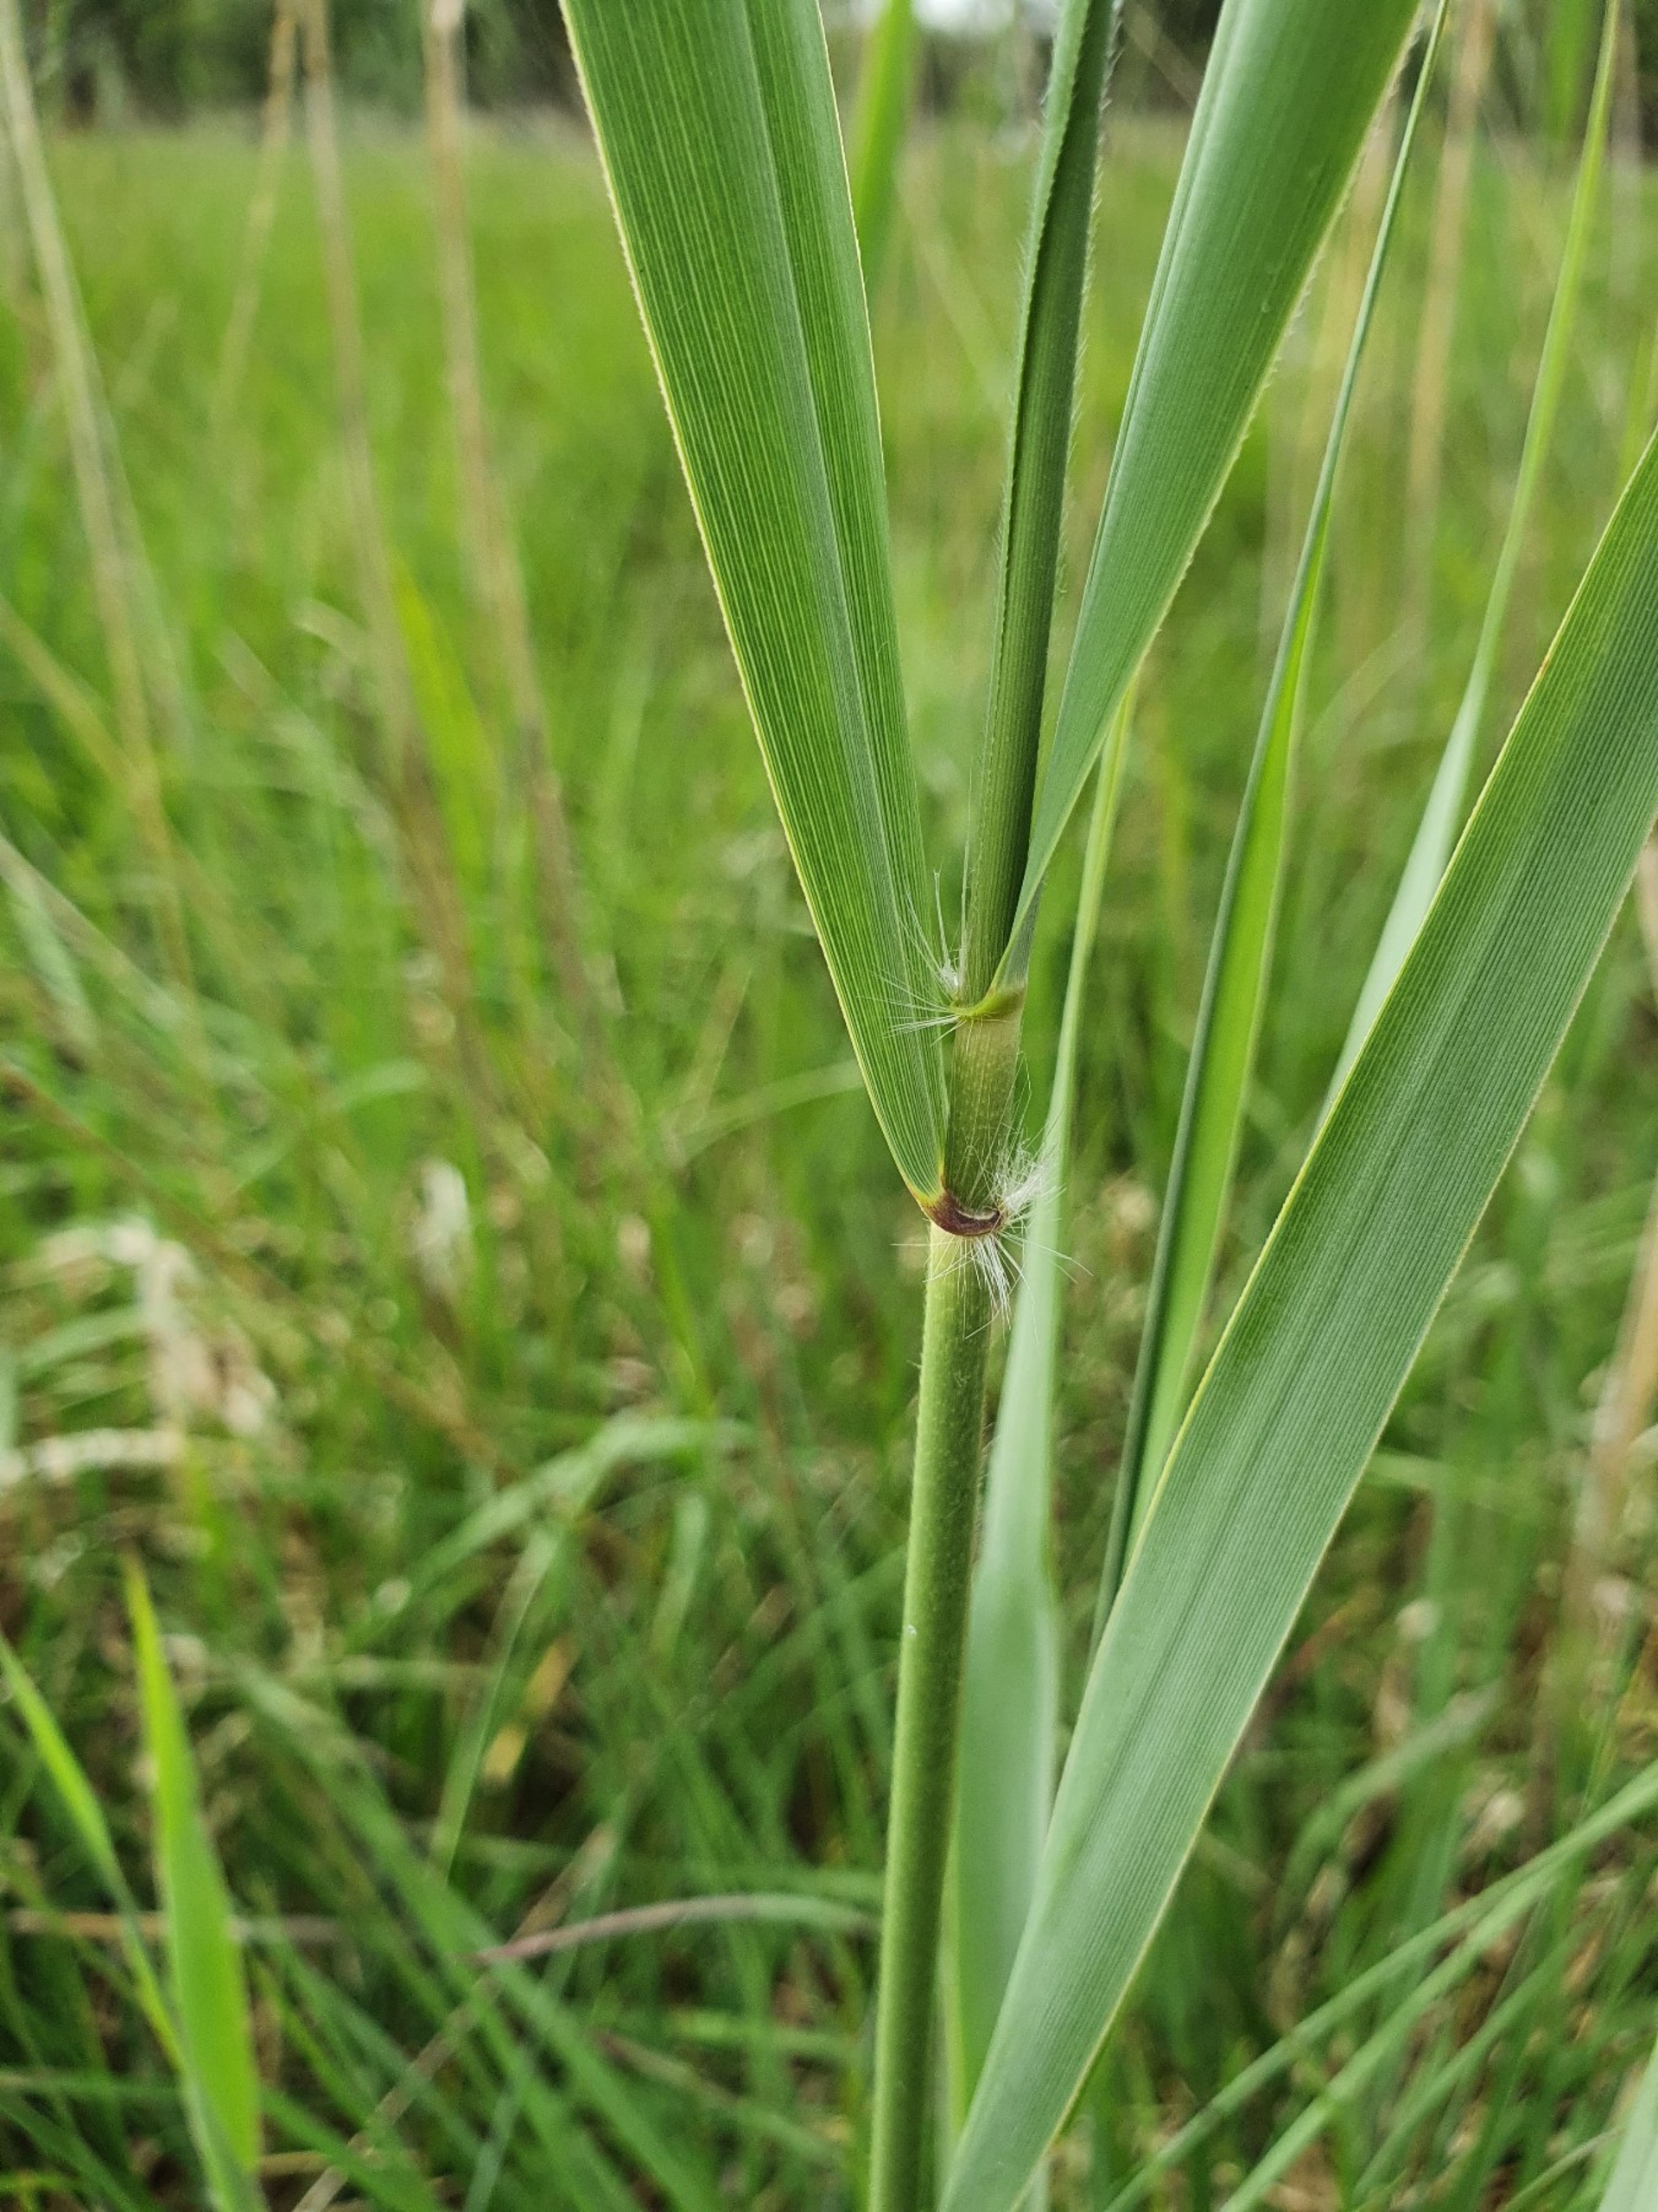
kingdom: Plantae
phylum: Tracheophyta
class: Liliopsida
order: Poales
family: Poaceae
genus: Phragmites
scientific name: Phragmites australis
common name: Tagrør
